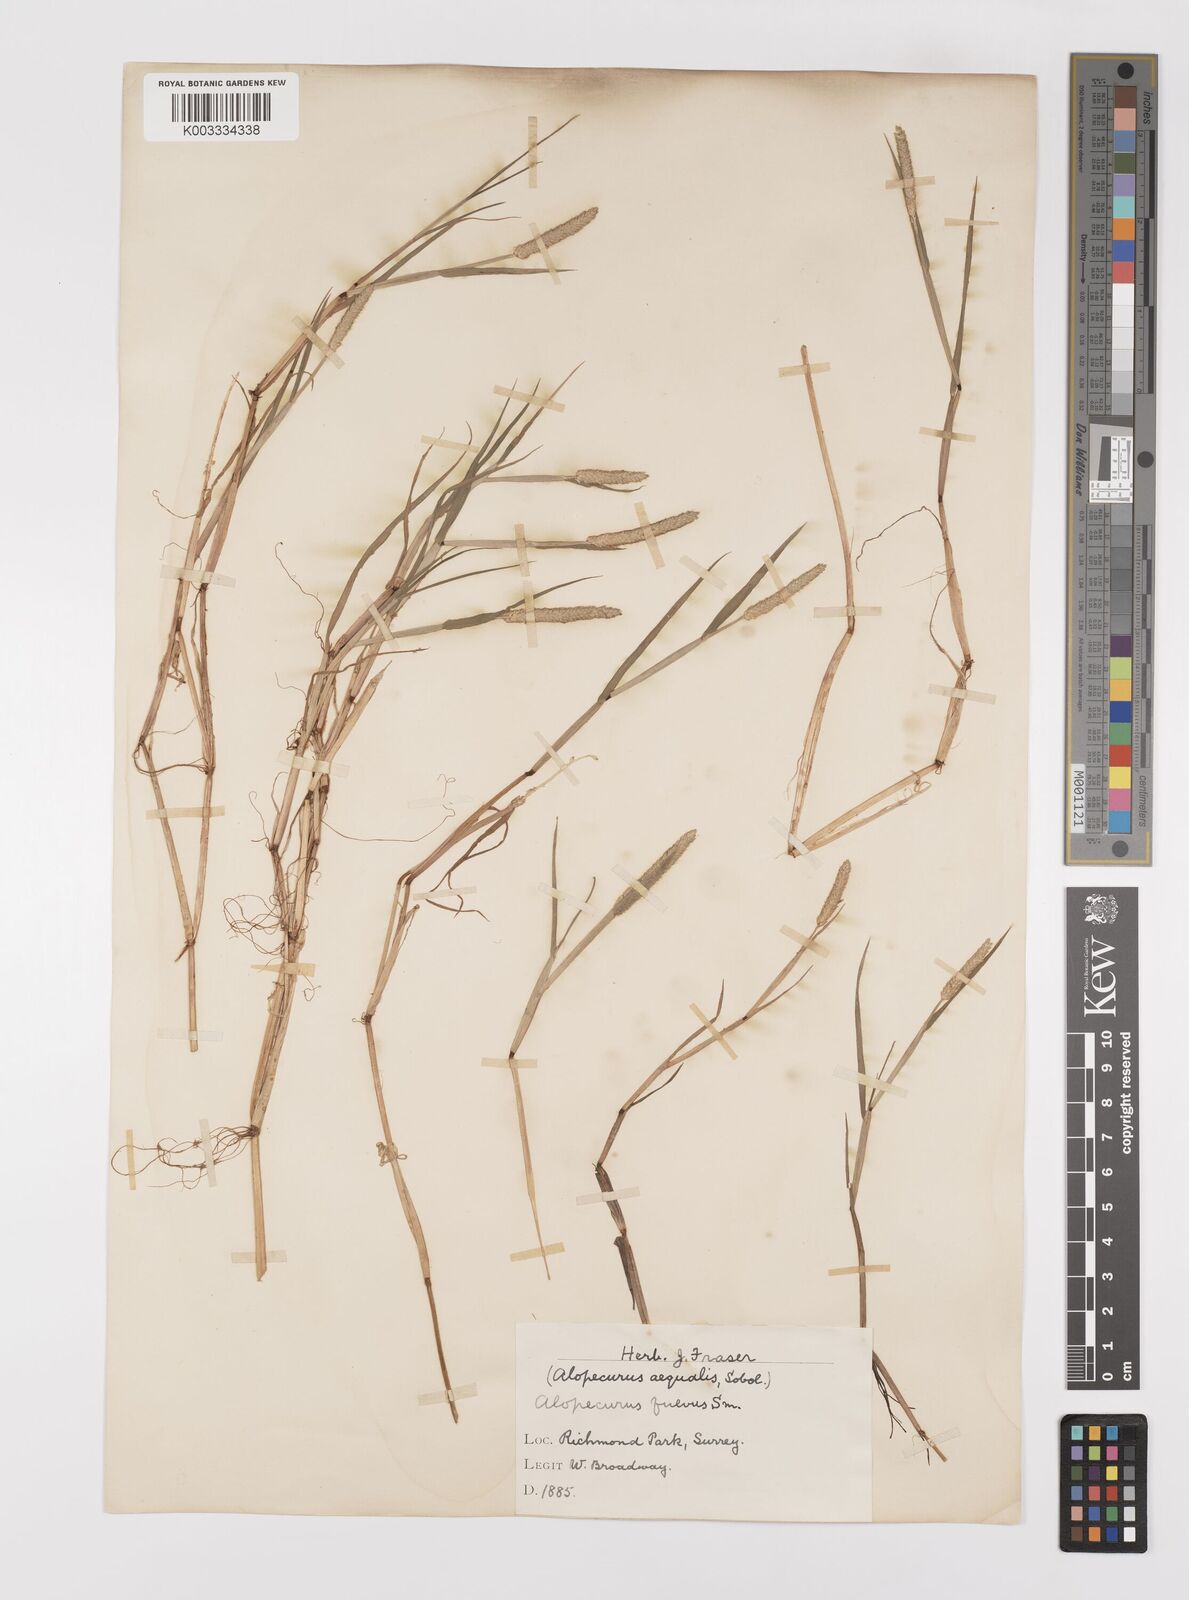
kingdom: Plantae
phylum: Tracheophyta
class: Liliopsida
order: Poales
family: Poaceae
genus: Alopecurus
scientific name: Alopecurus aequalis
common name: Orange foxtail
